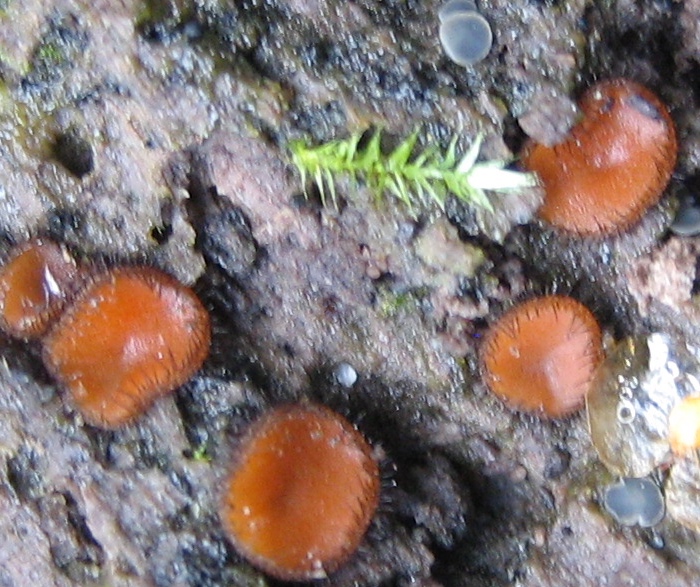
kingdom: Fungi
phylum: Ascomycota
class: Pezizomycetes
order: Pezizales
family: Pyronemataceae
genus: Scutellinia
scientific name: Scutellinia scutellata
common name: frynset skjoldbæger
